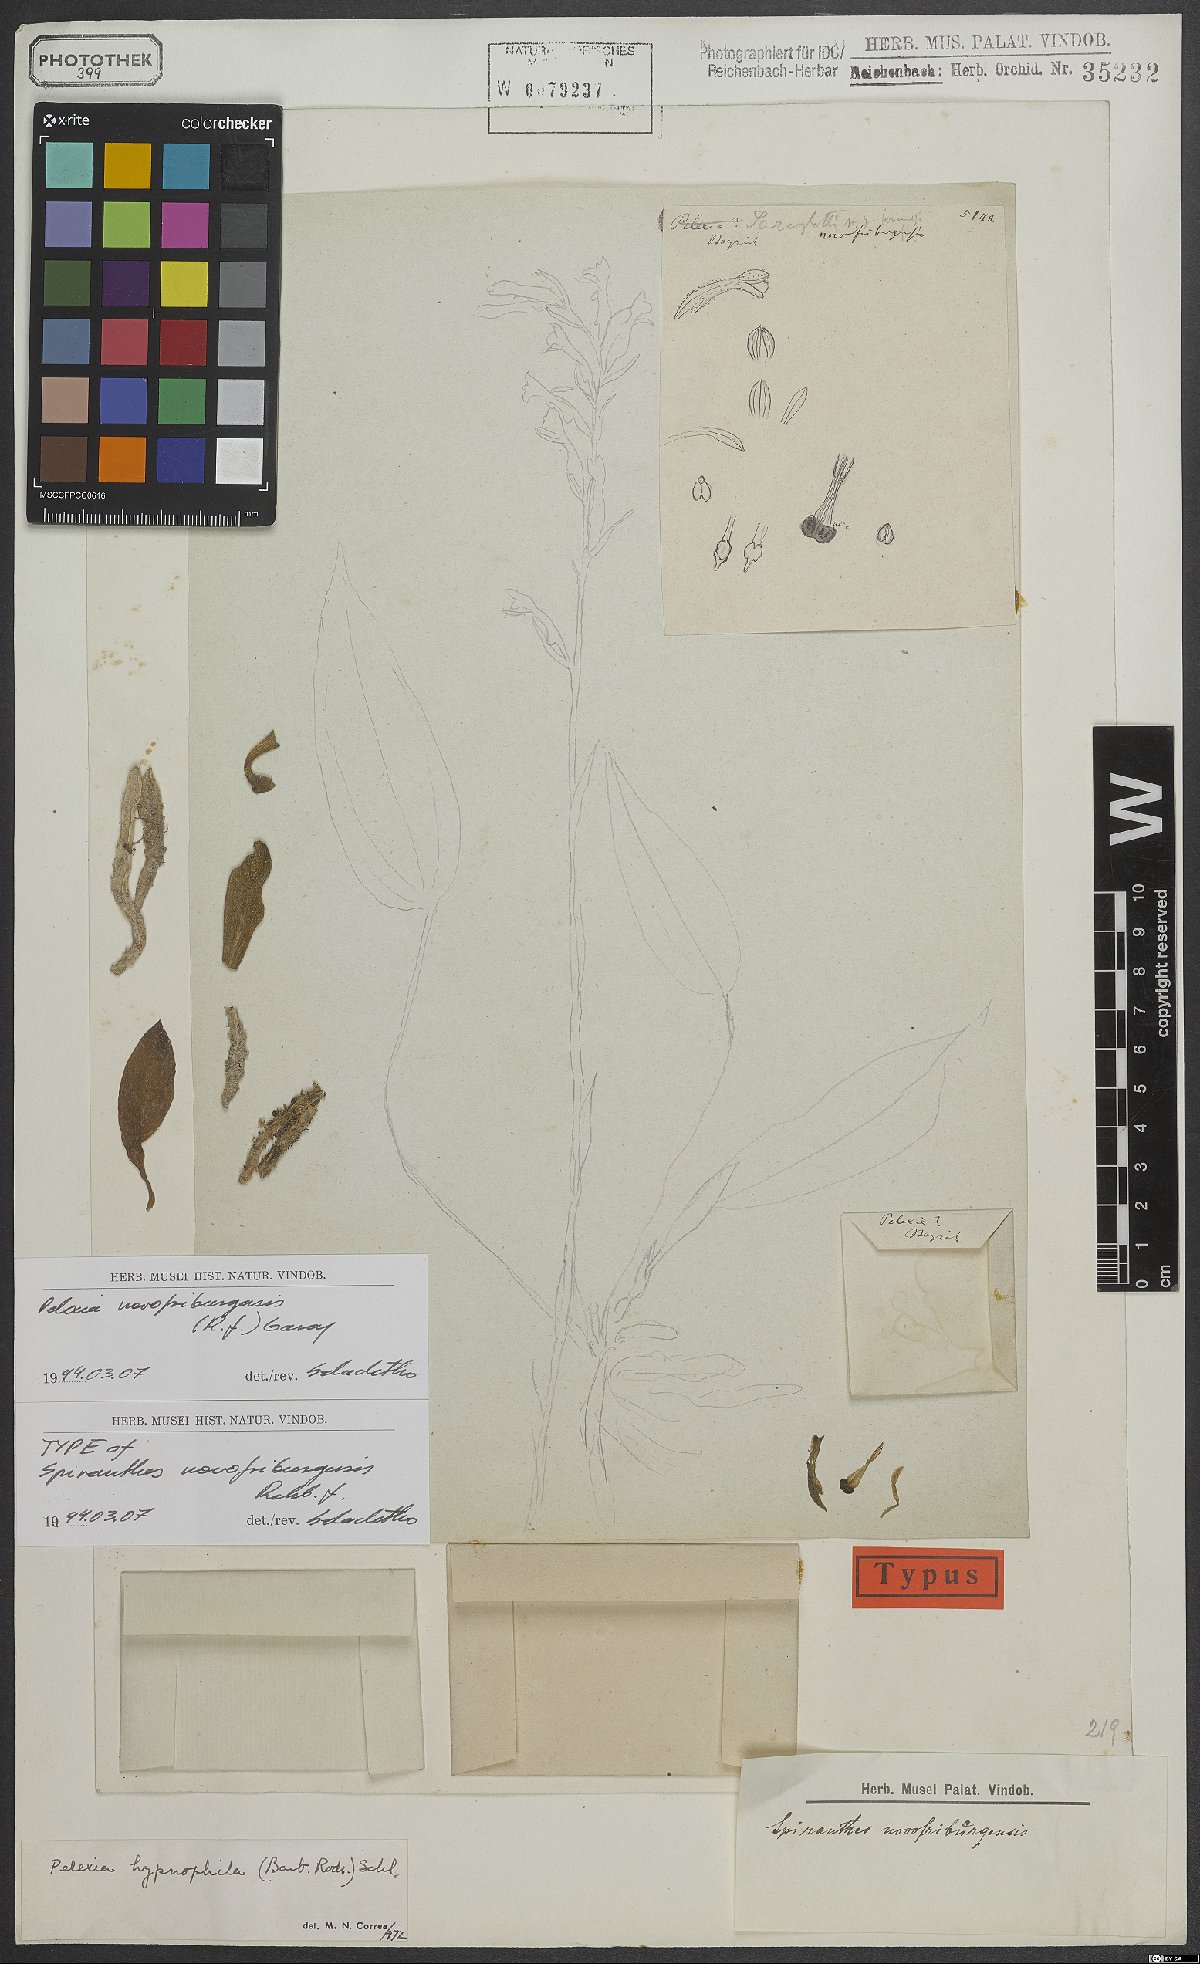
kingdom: Plantae
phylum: Tracheophyta
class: Liliopsida
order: Asparagales
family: Orchidaceae
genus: Pelexia
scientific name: Pelexia novofriburgensis
